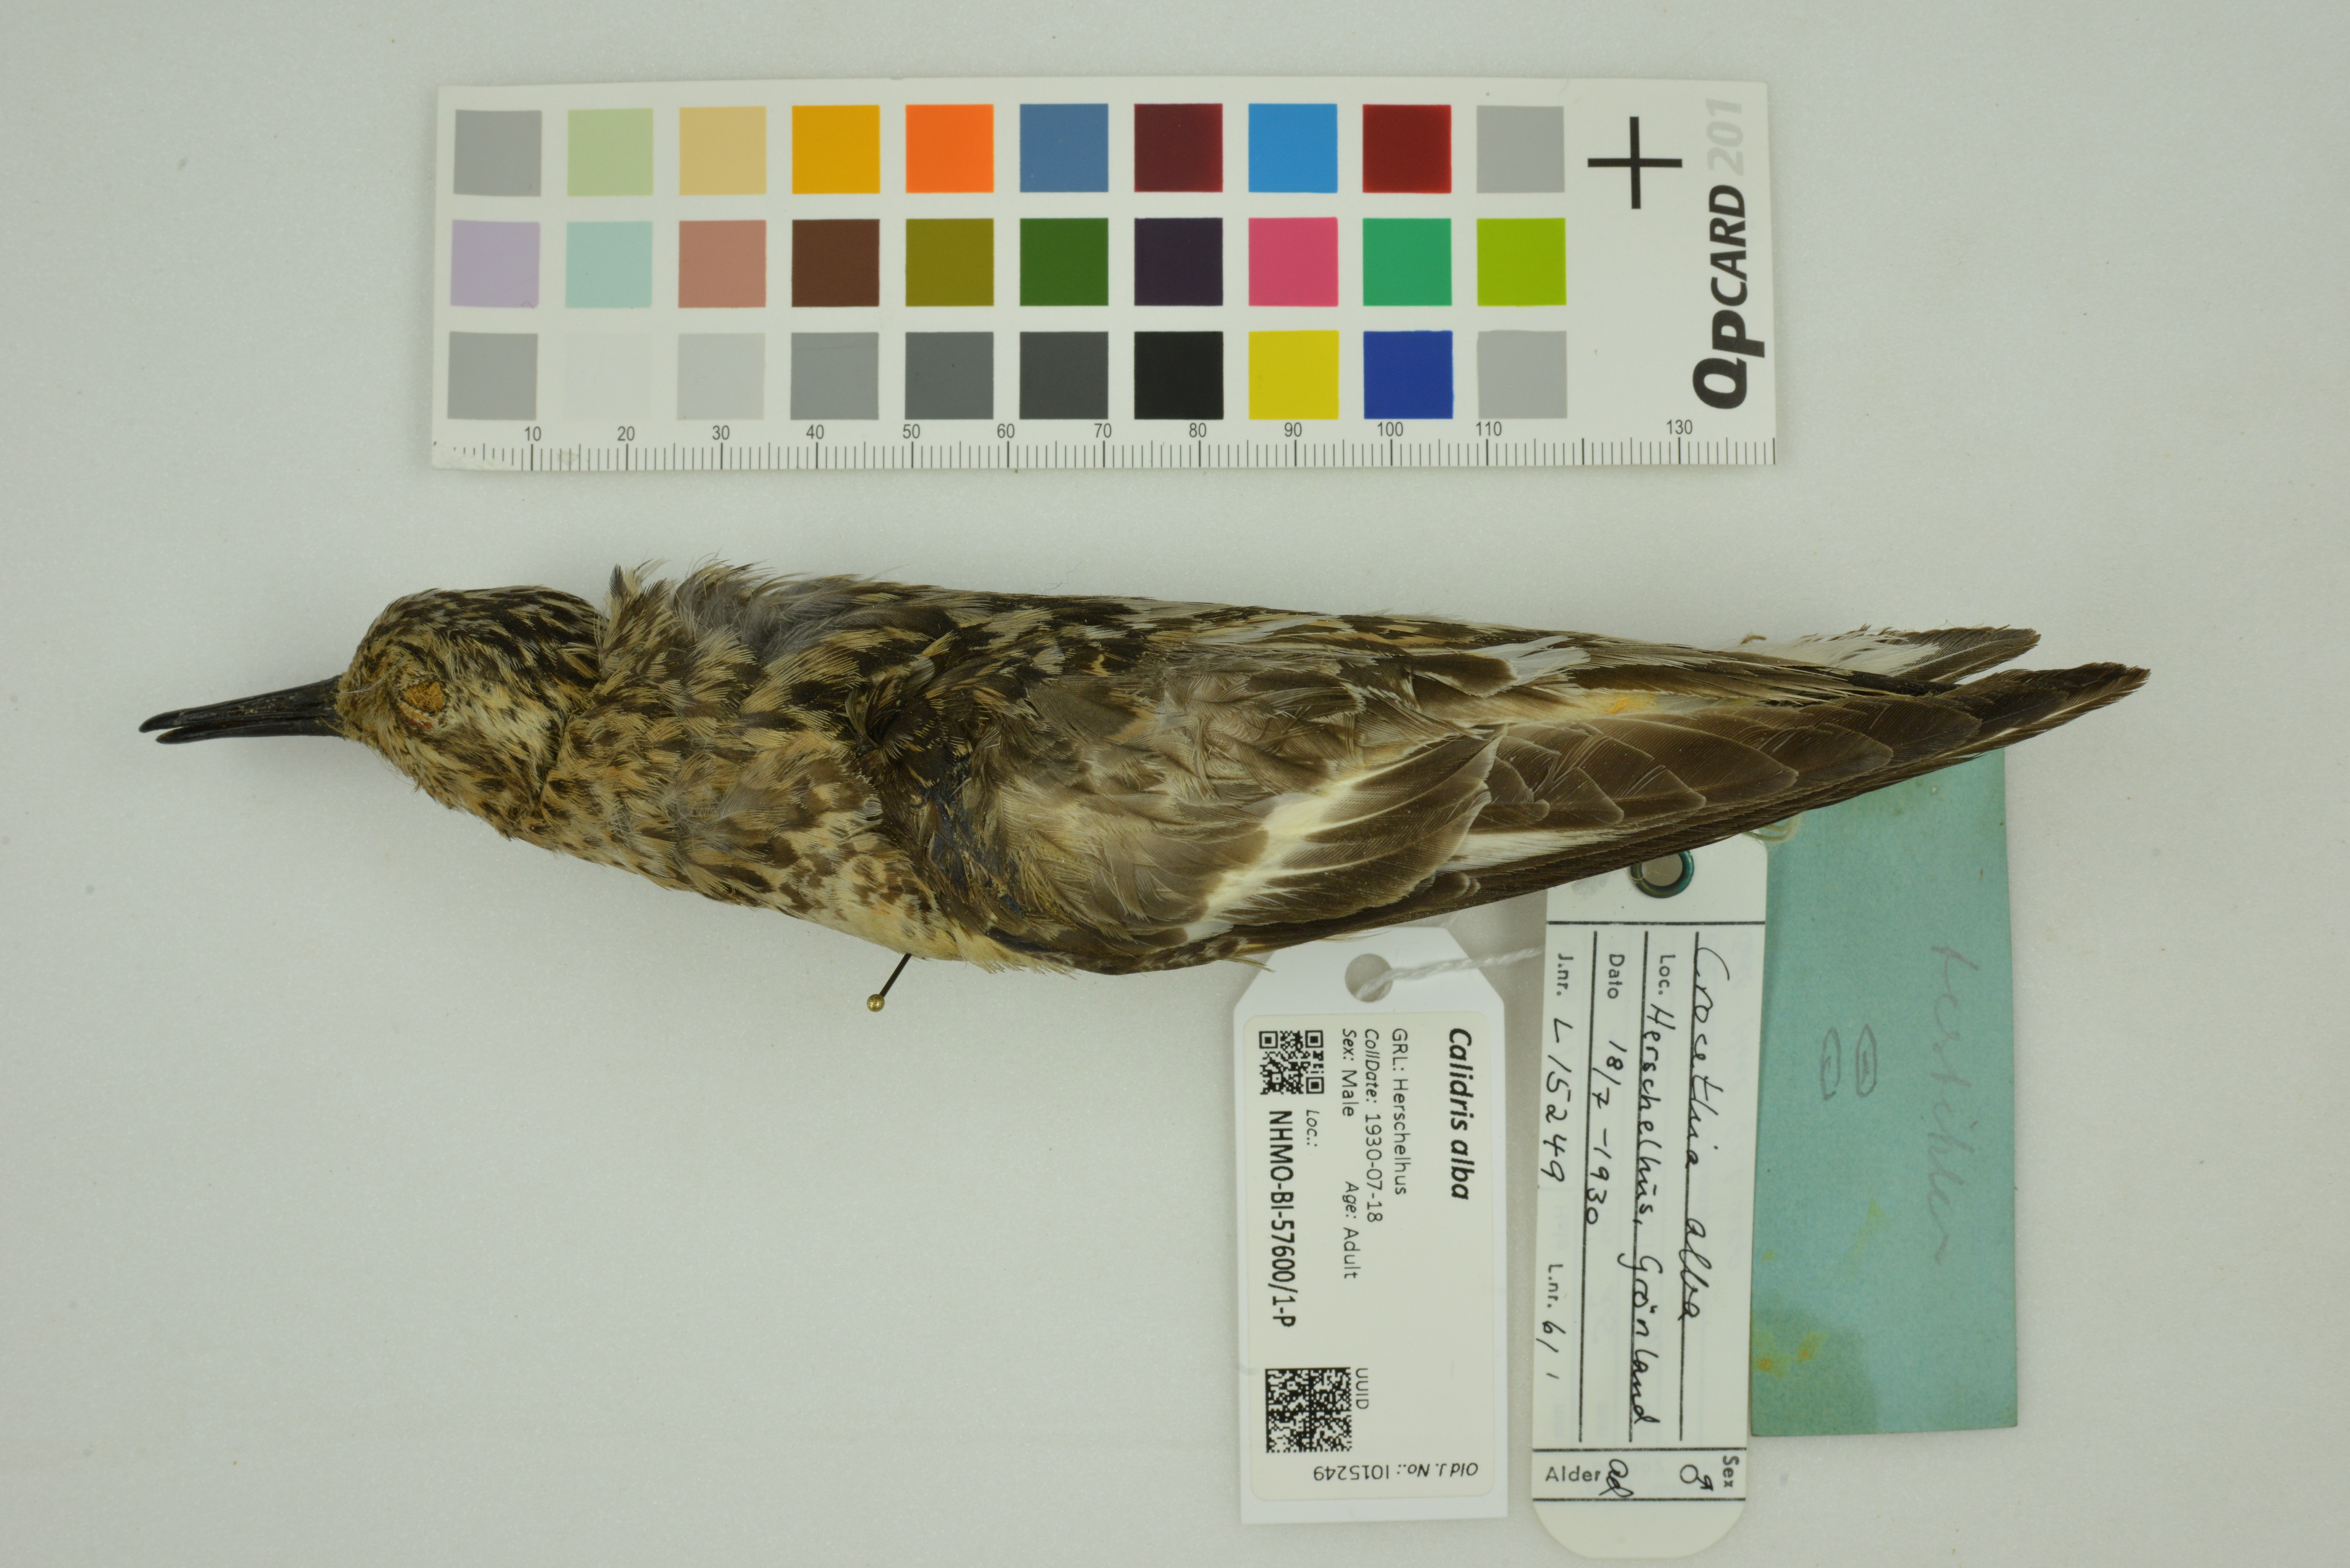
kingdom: Animalia
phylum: Chordata
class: Aves
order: Charadriiformes
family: Scolopacidae
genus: Calidris
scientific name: Calidris alba
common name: Sanderling
